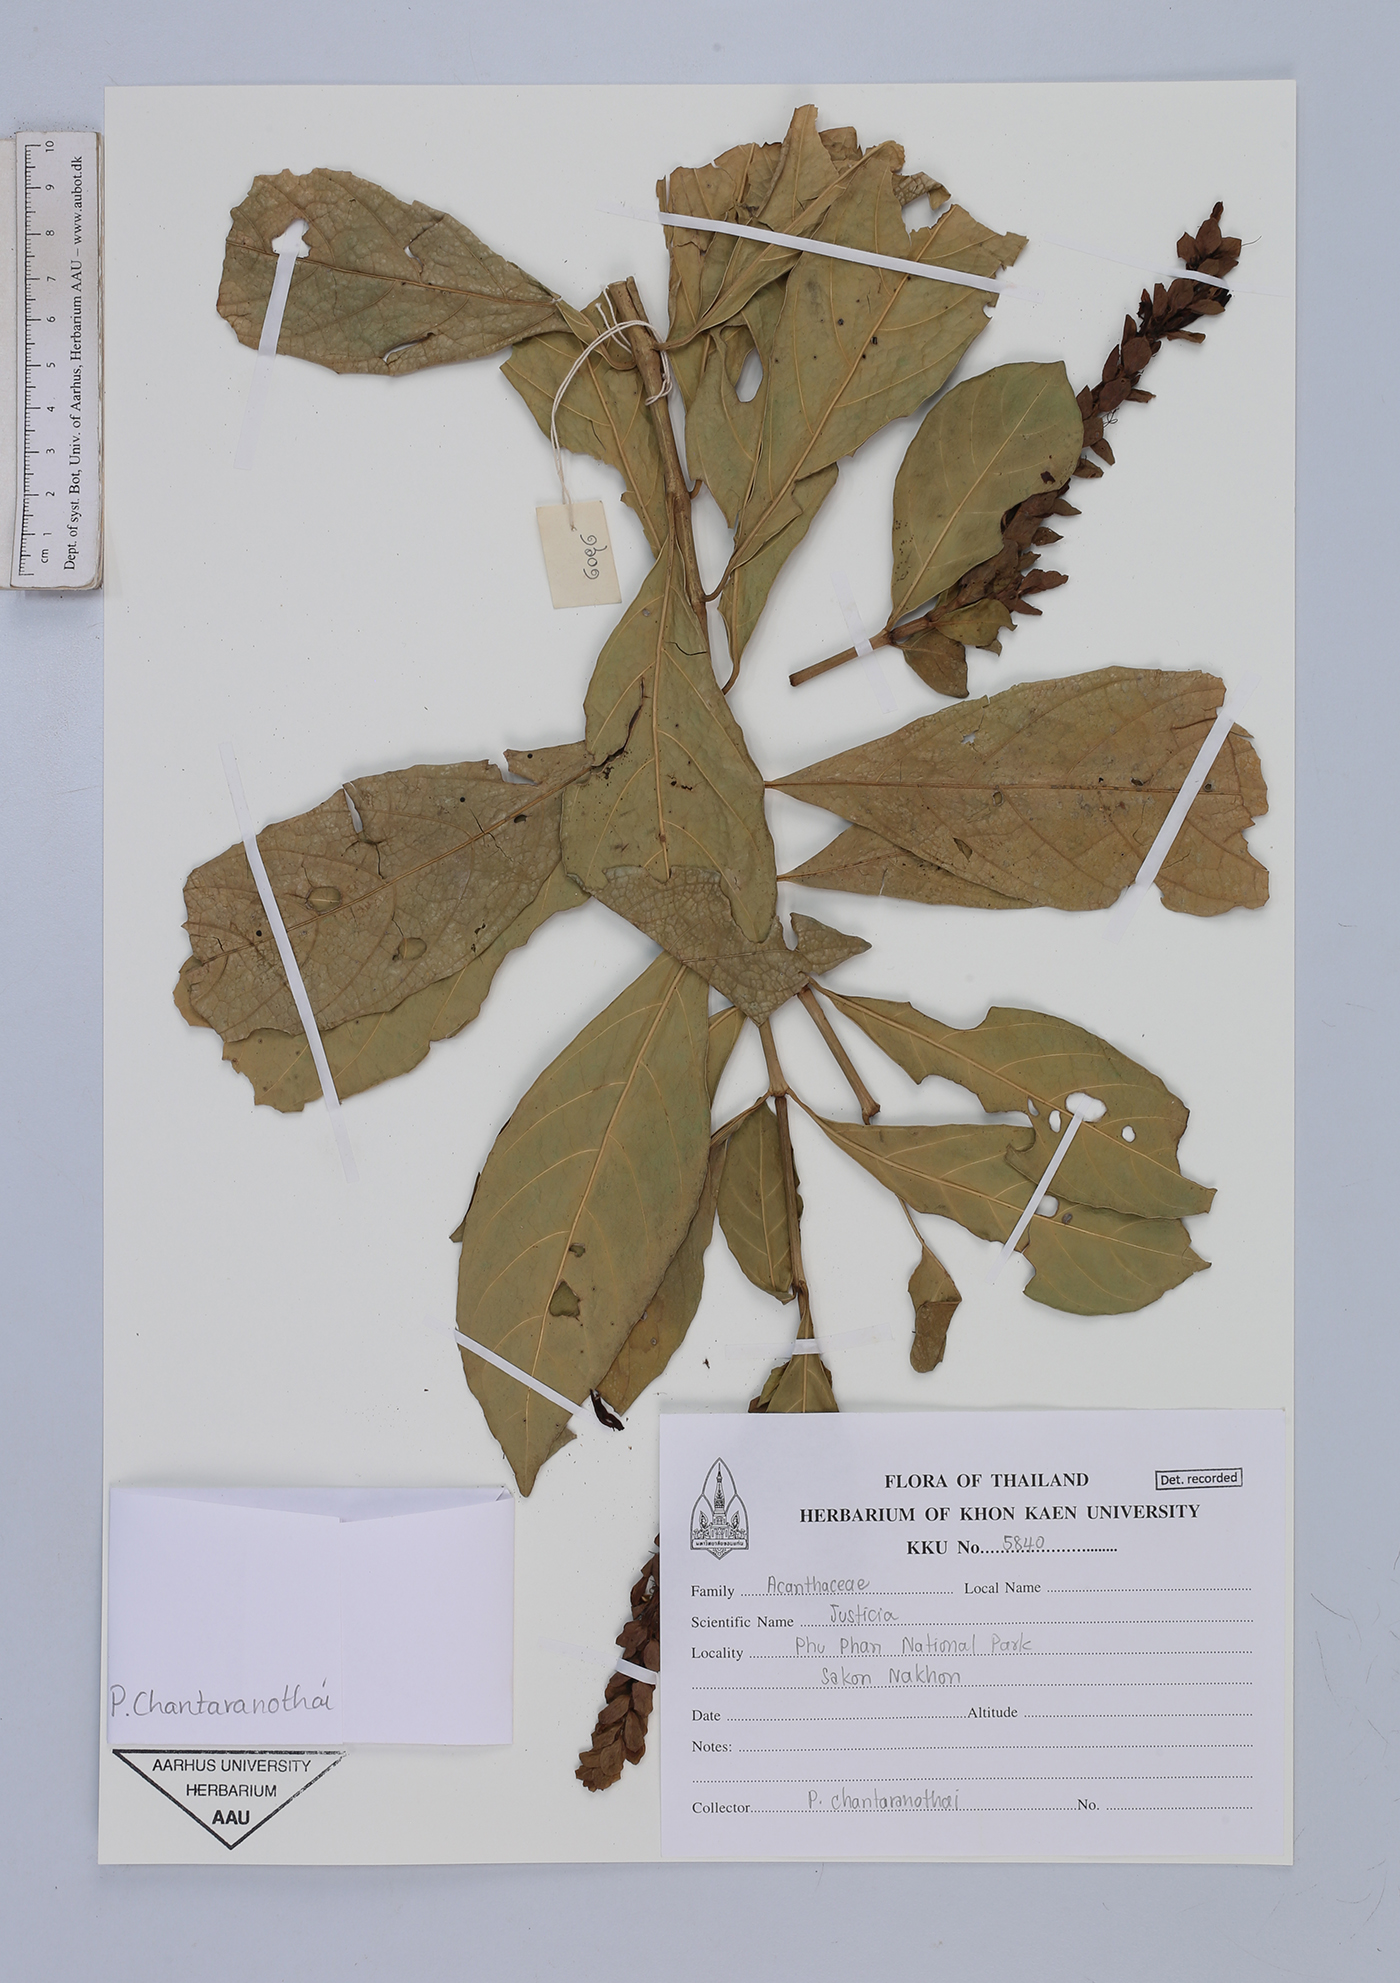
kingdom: Plantae
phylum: Tracheophyta
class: Magnoliopsida
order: Lamiales
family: Acanthaceae
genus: Justicia
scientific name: Justicia ventricosa
